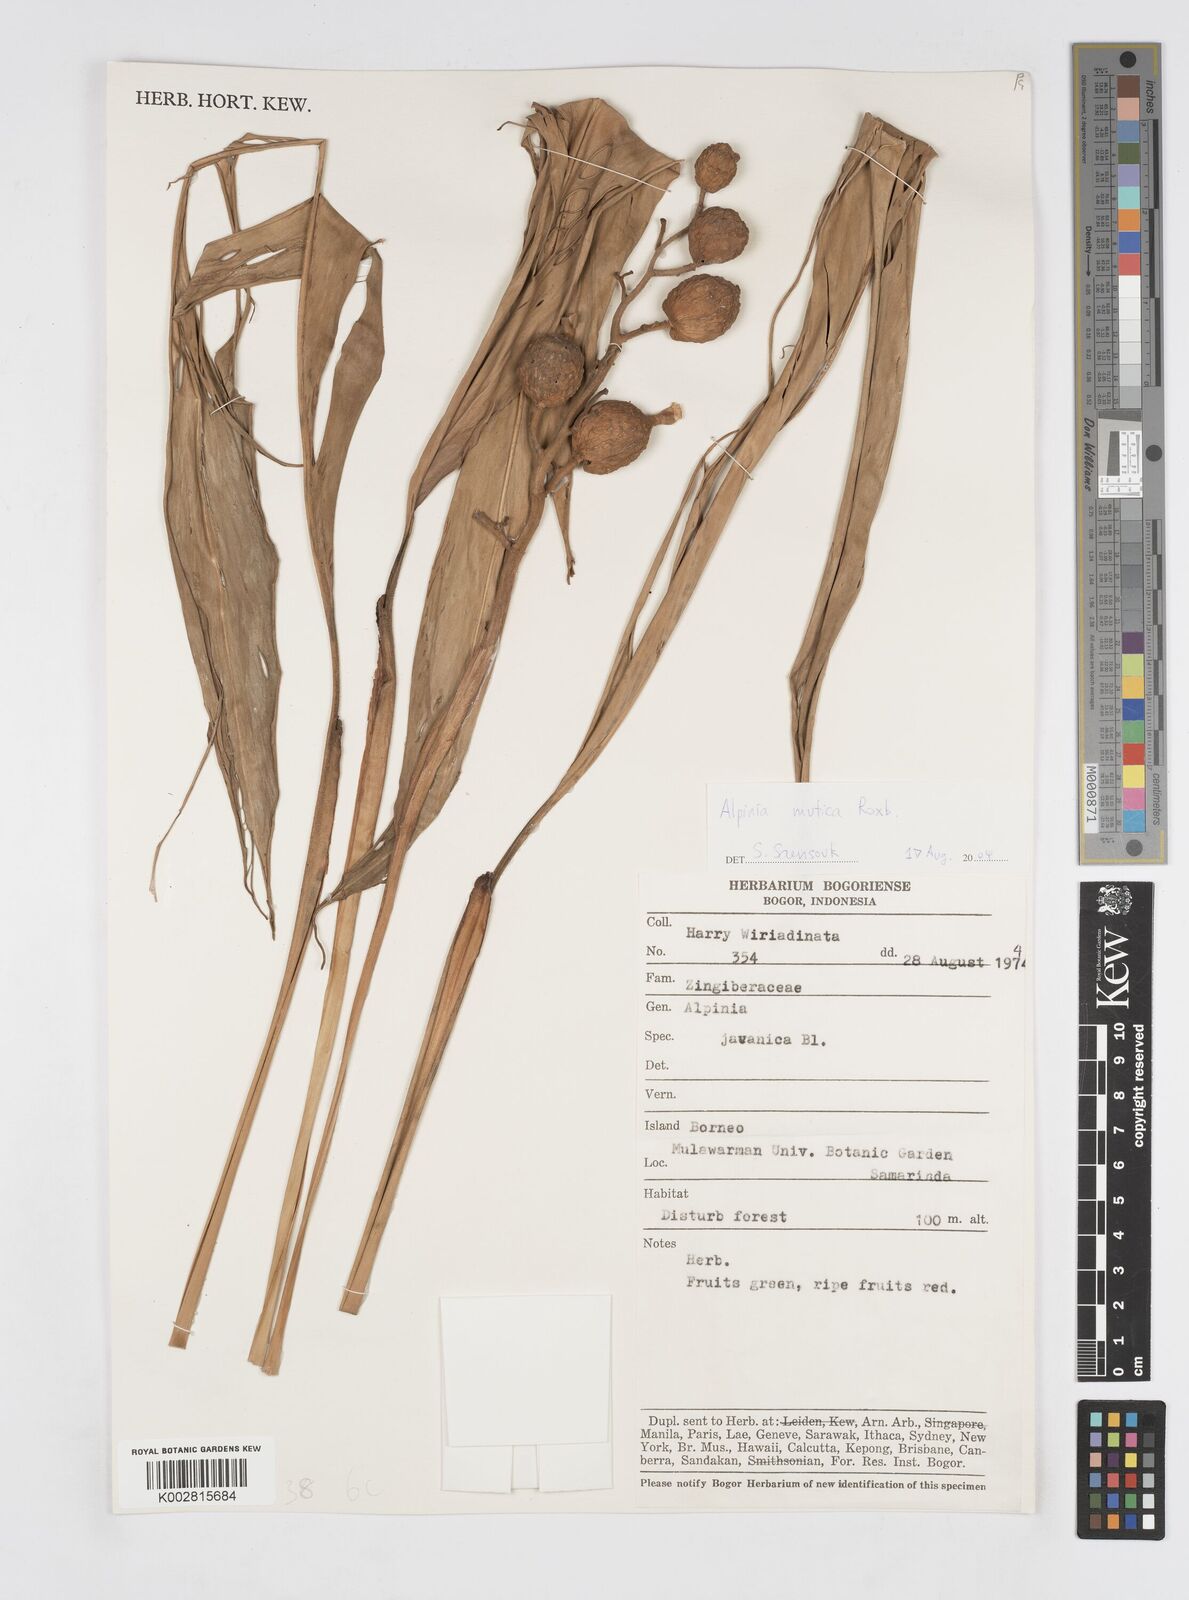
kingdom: Plantae
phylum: Tracheophyta
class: Liliopsida
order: Zingiberales
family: Zingiberaceae
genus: Alpinia
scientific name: Alpinia mutica
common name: Small shell ginger
